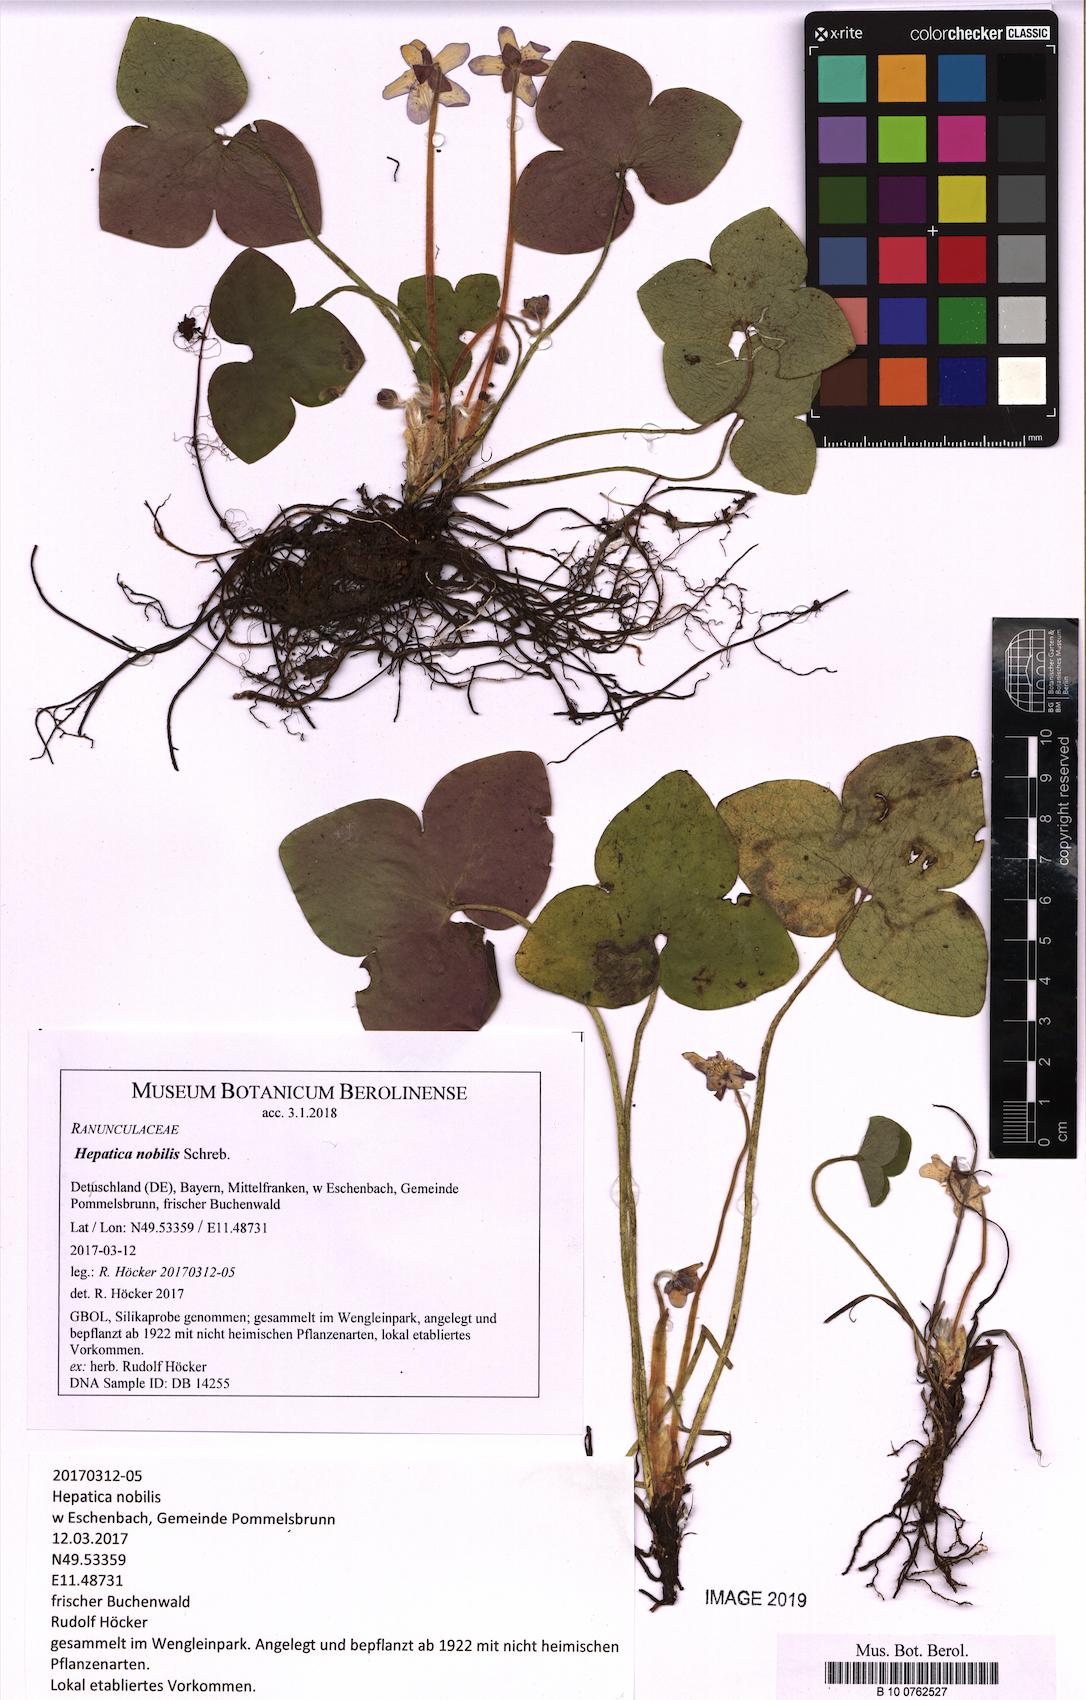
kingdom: Plantae
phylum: Tracheophyta
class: Magnoliopsida
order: Ranunculales
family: Ranunculaceae
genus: Hepatica
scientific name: Hepatica nobilis
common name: Liverleaf
